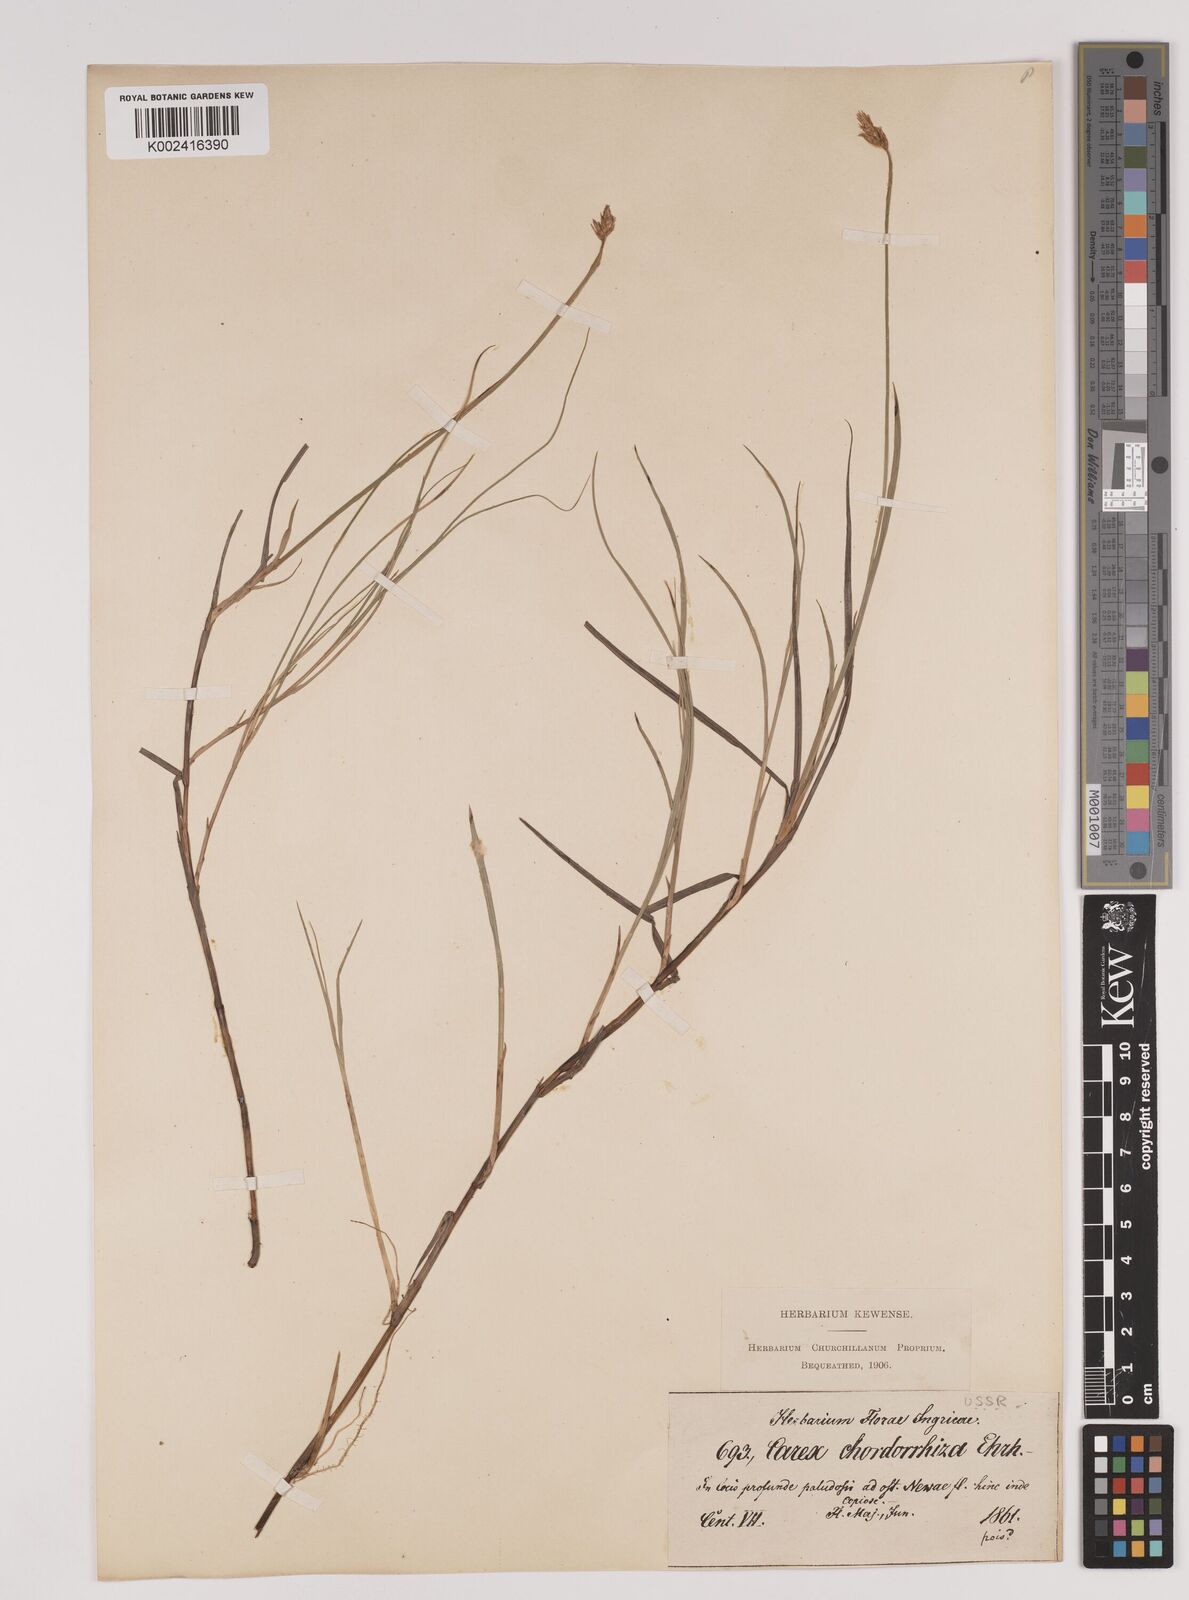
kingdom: Plantae
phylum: Tracheophyta
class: Liliopsida
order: Poales
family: Cyperaceae
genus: Carex
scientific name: Carex chordorrhiza
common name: String sedge
